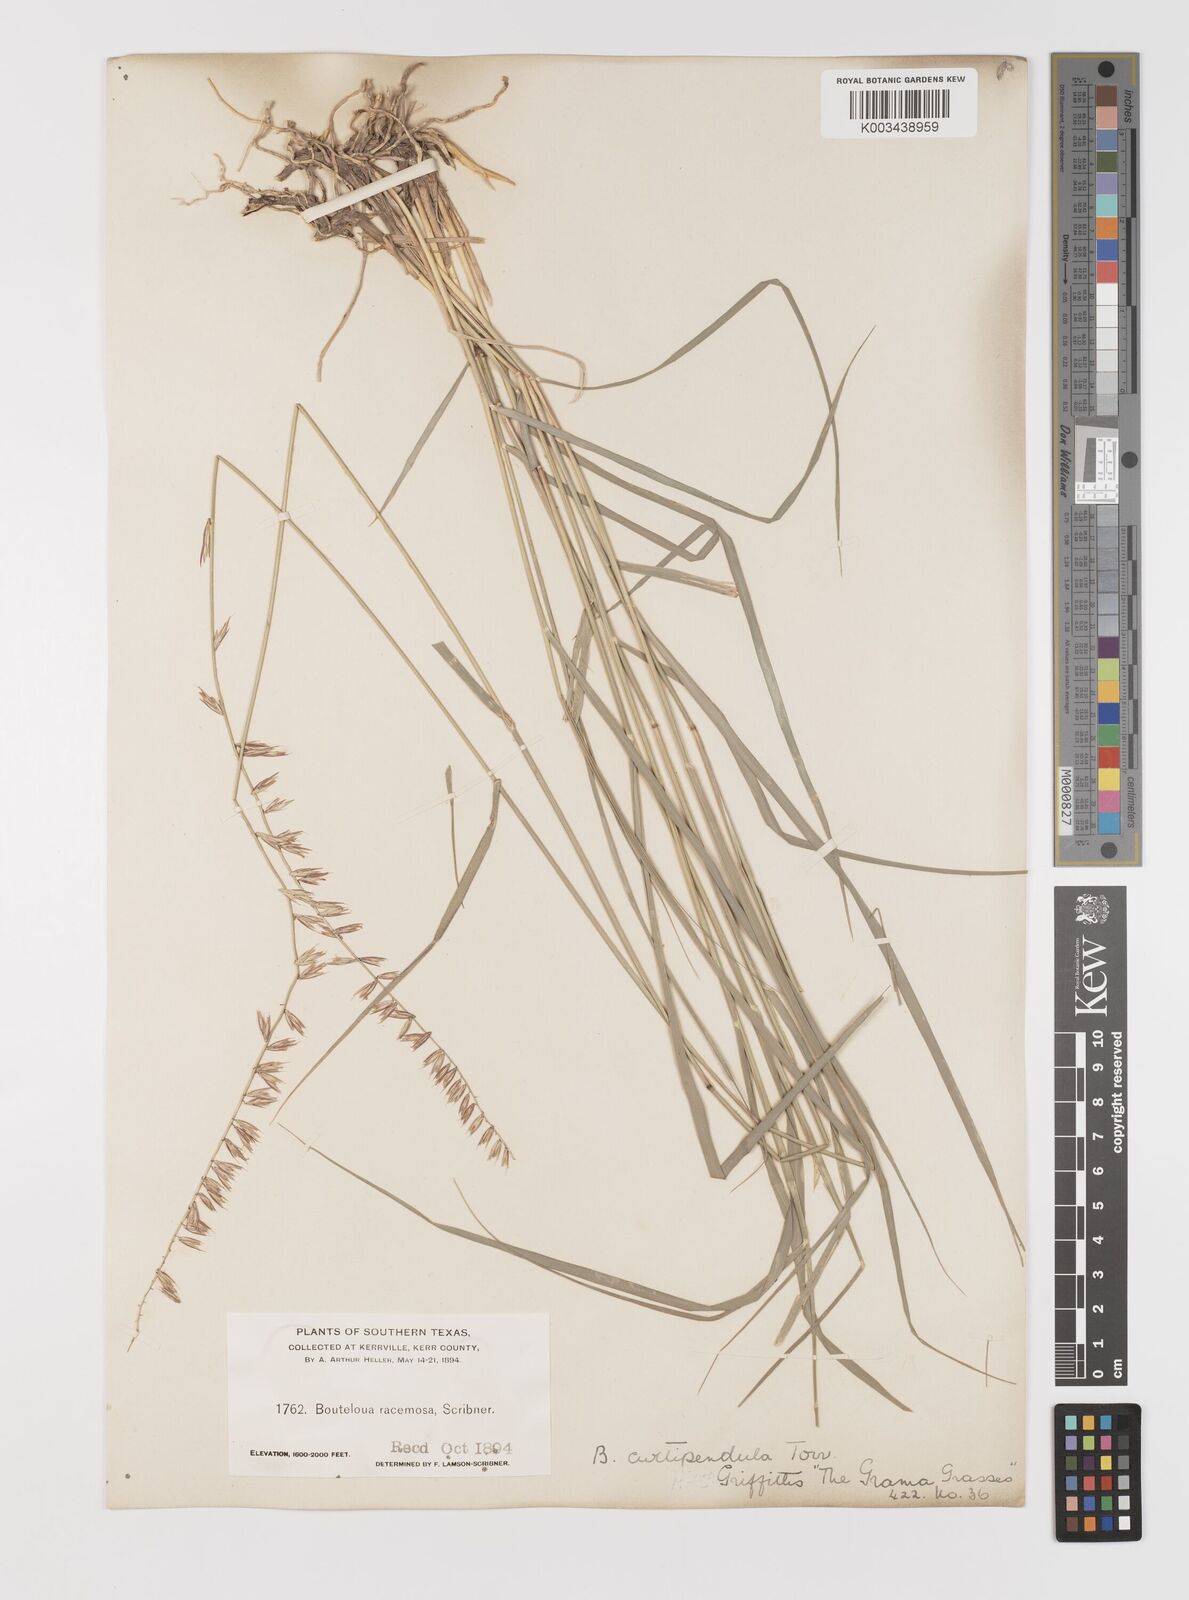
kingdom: Plantae
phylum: Tracheophyta
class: Liliopsida
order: Poales
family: Poaceae
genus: Bouteloua
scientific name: Bouteloua curtipendula
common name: Side-oats grama
